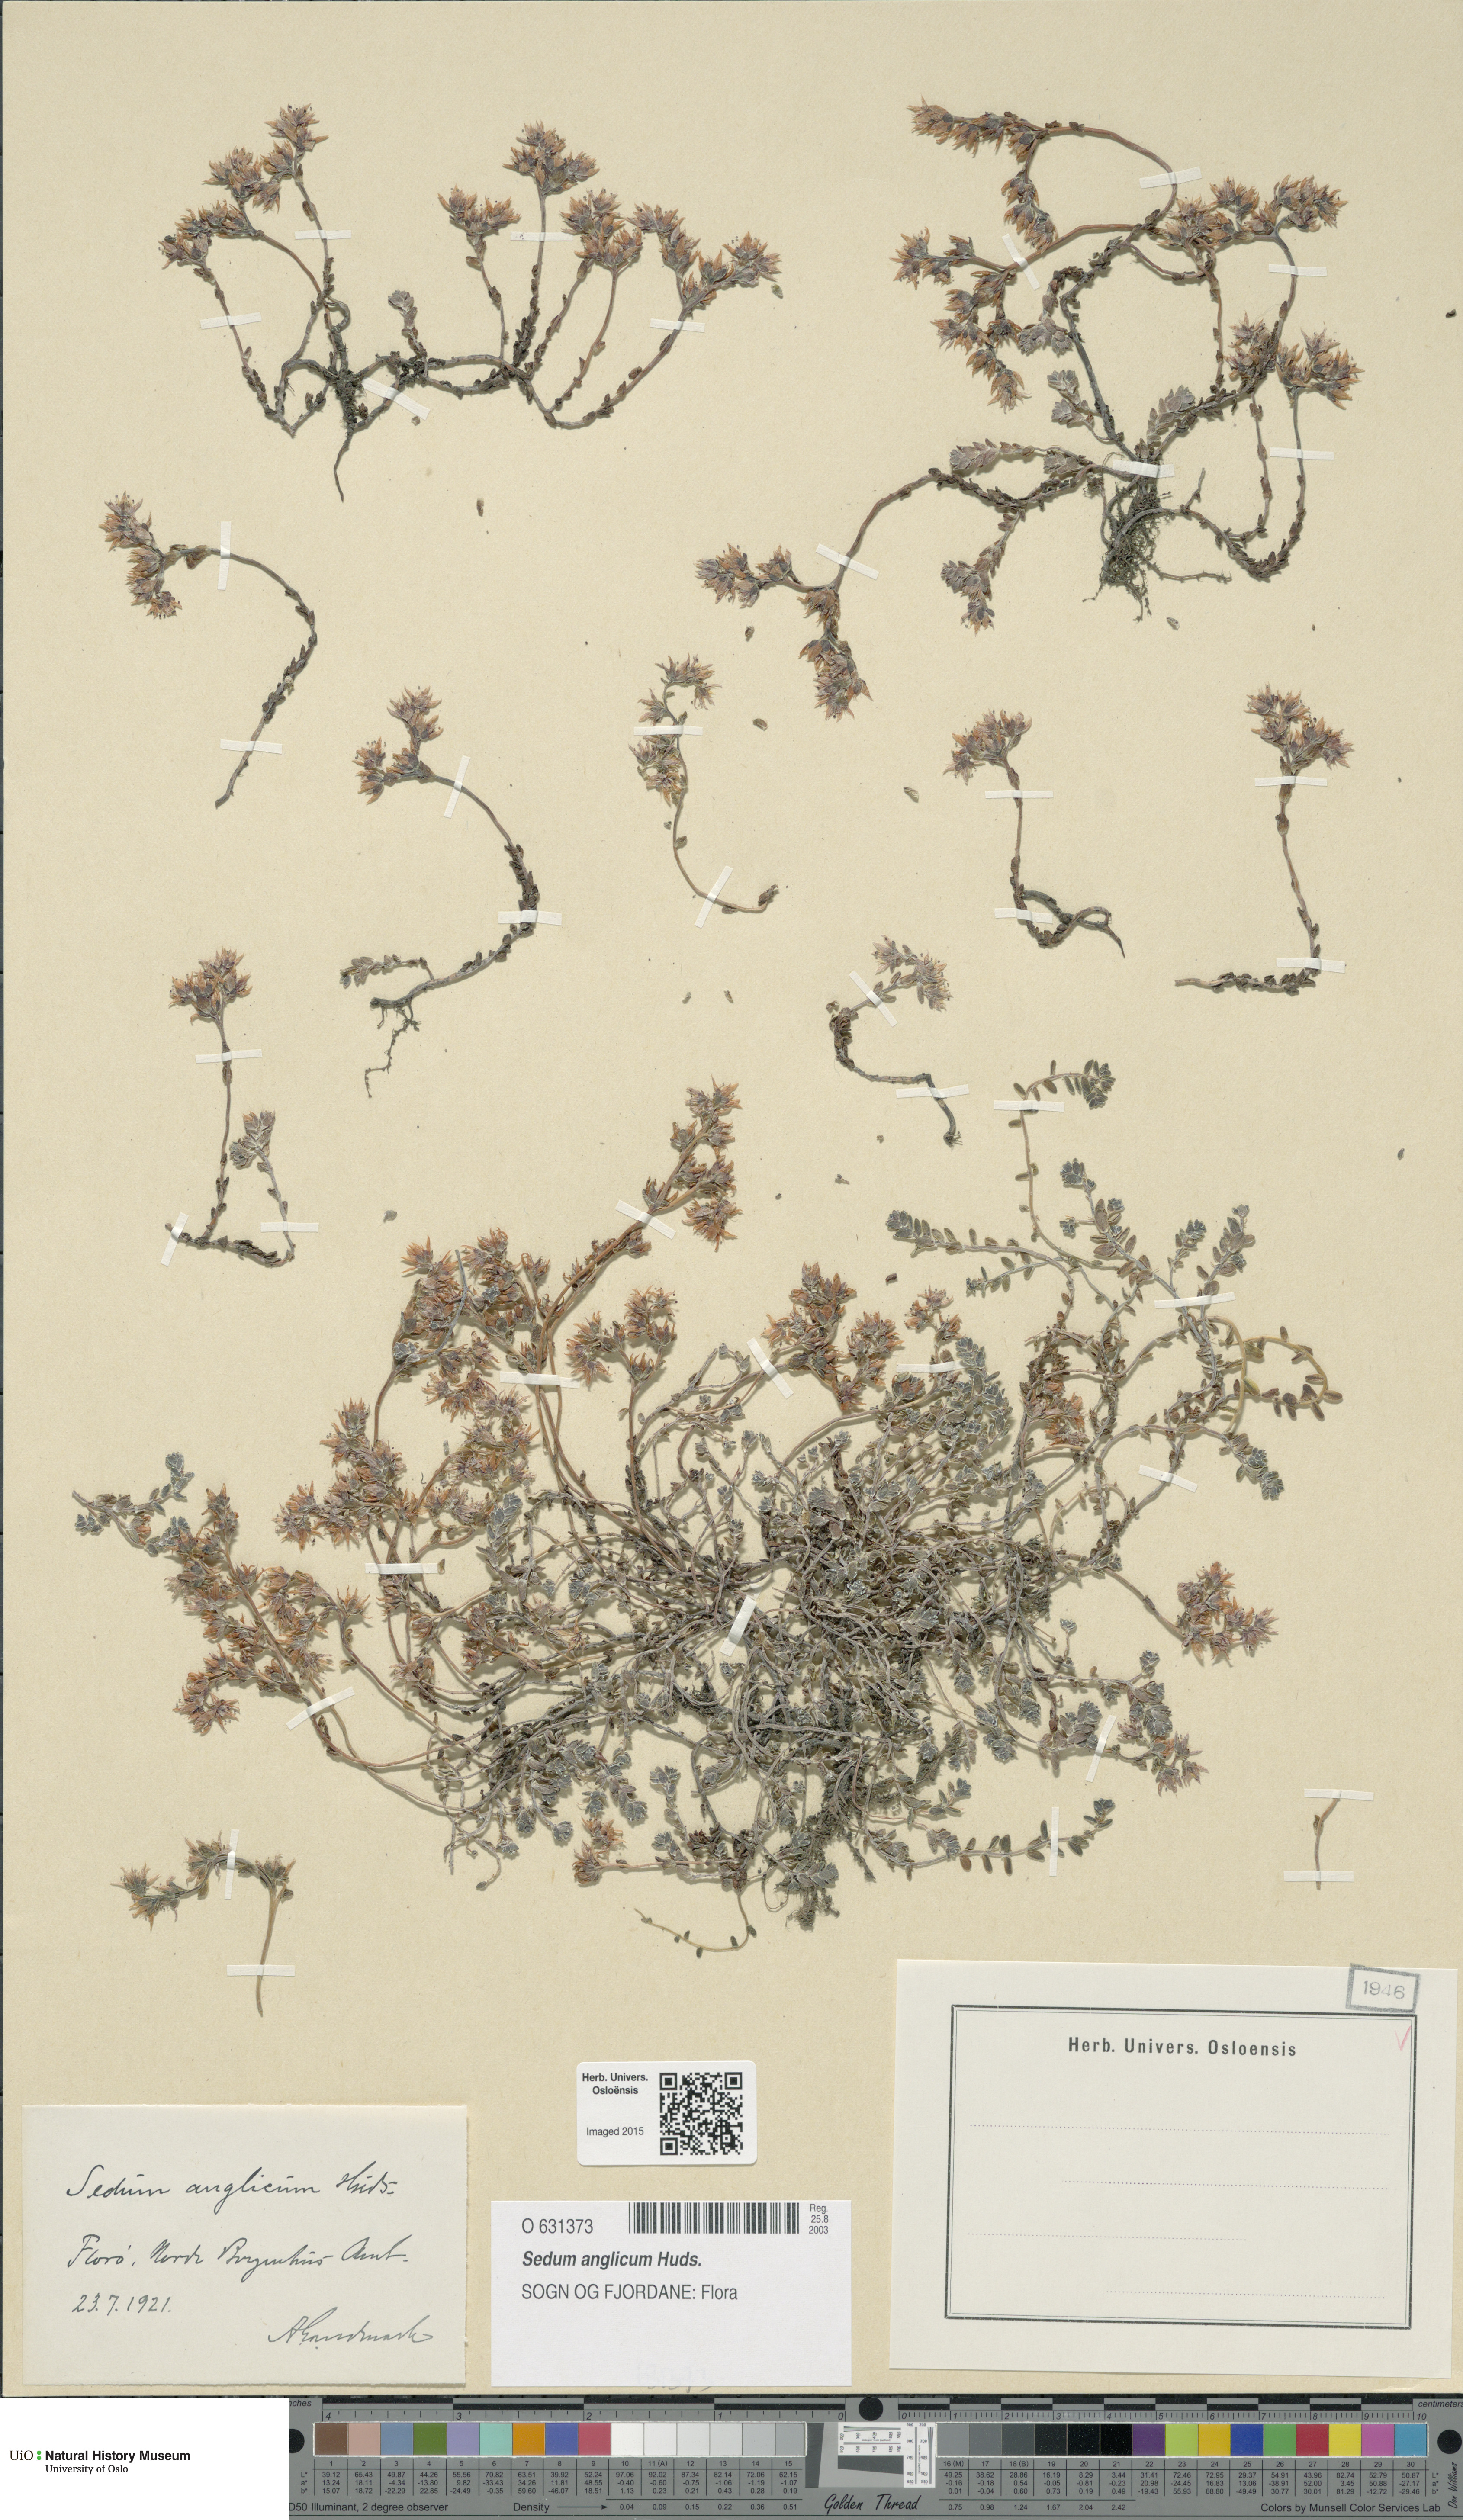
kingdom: Plantae
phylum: Tracheophyta
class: Magnoliopsida
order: Saxifragales
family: Crassulaceae
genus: Sedum
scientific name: Sedum anglicum
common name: English stonecrop
